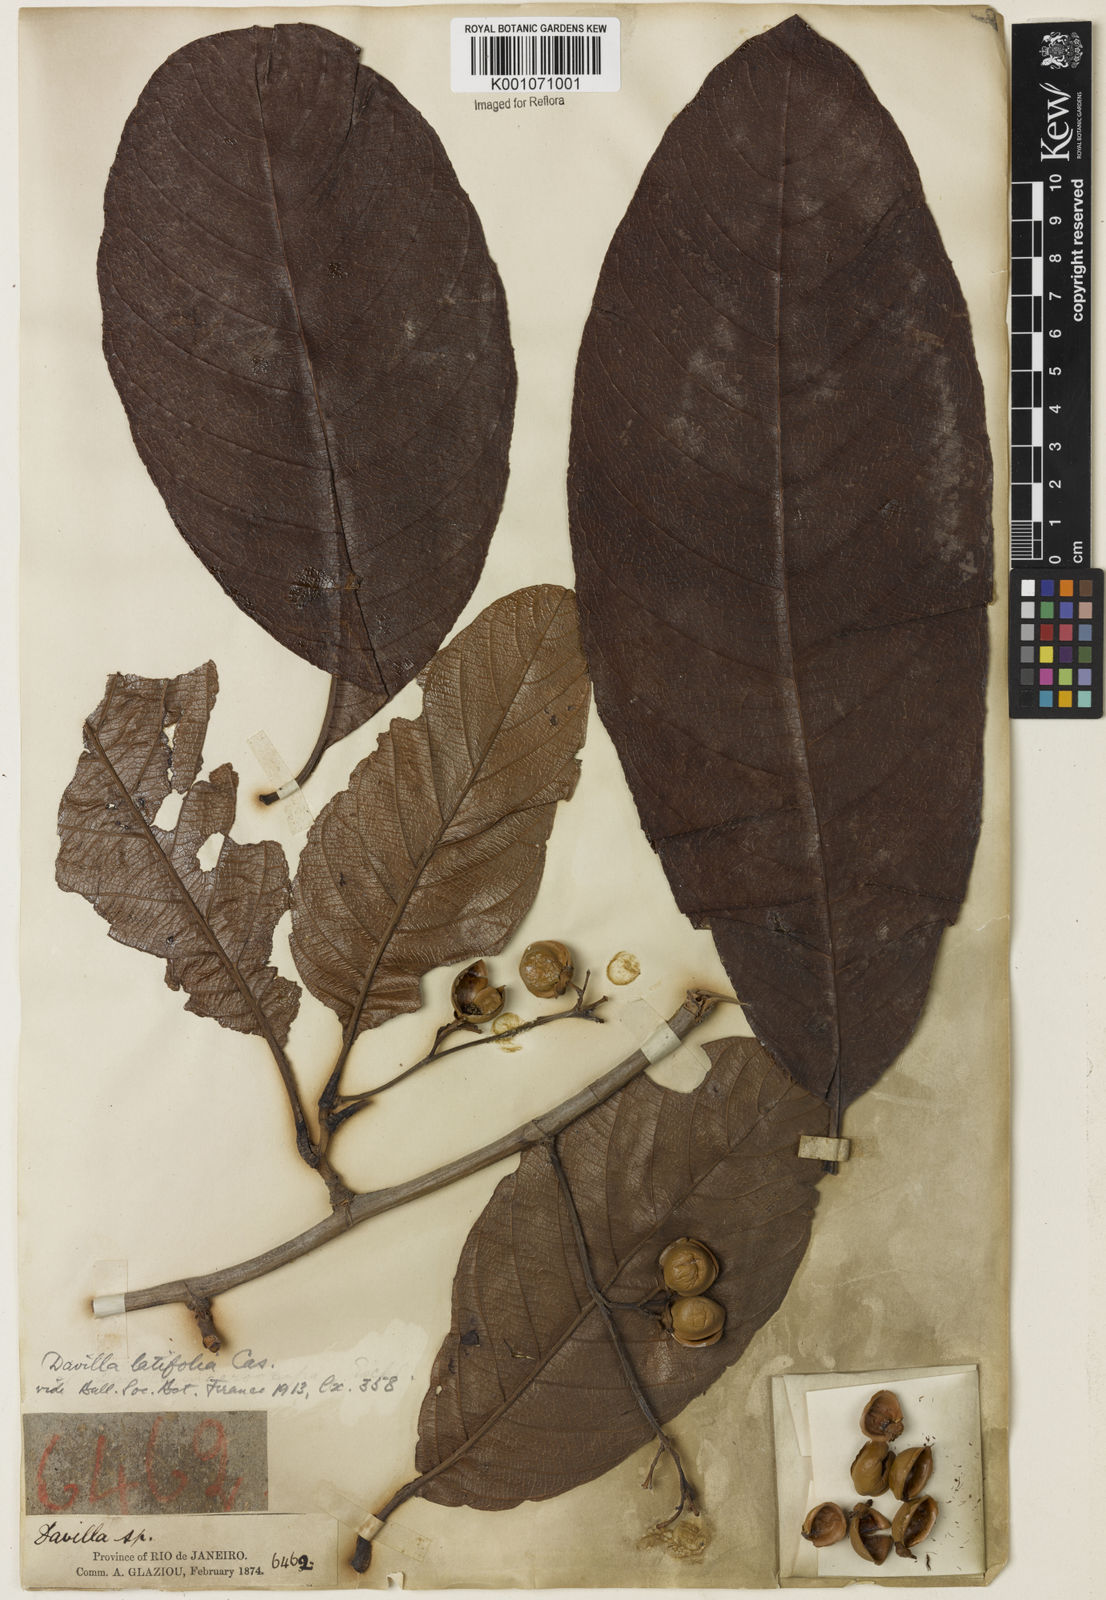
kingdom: Plantae
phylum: Tracheophyta
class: Magnoliopsida
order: Dilleniales
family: Dilleniaceae
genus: Davilla
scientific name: Davilla latifolia
